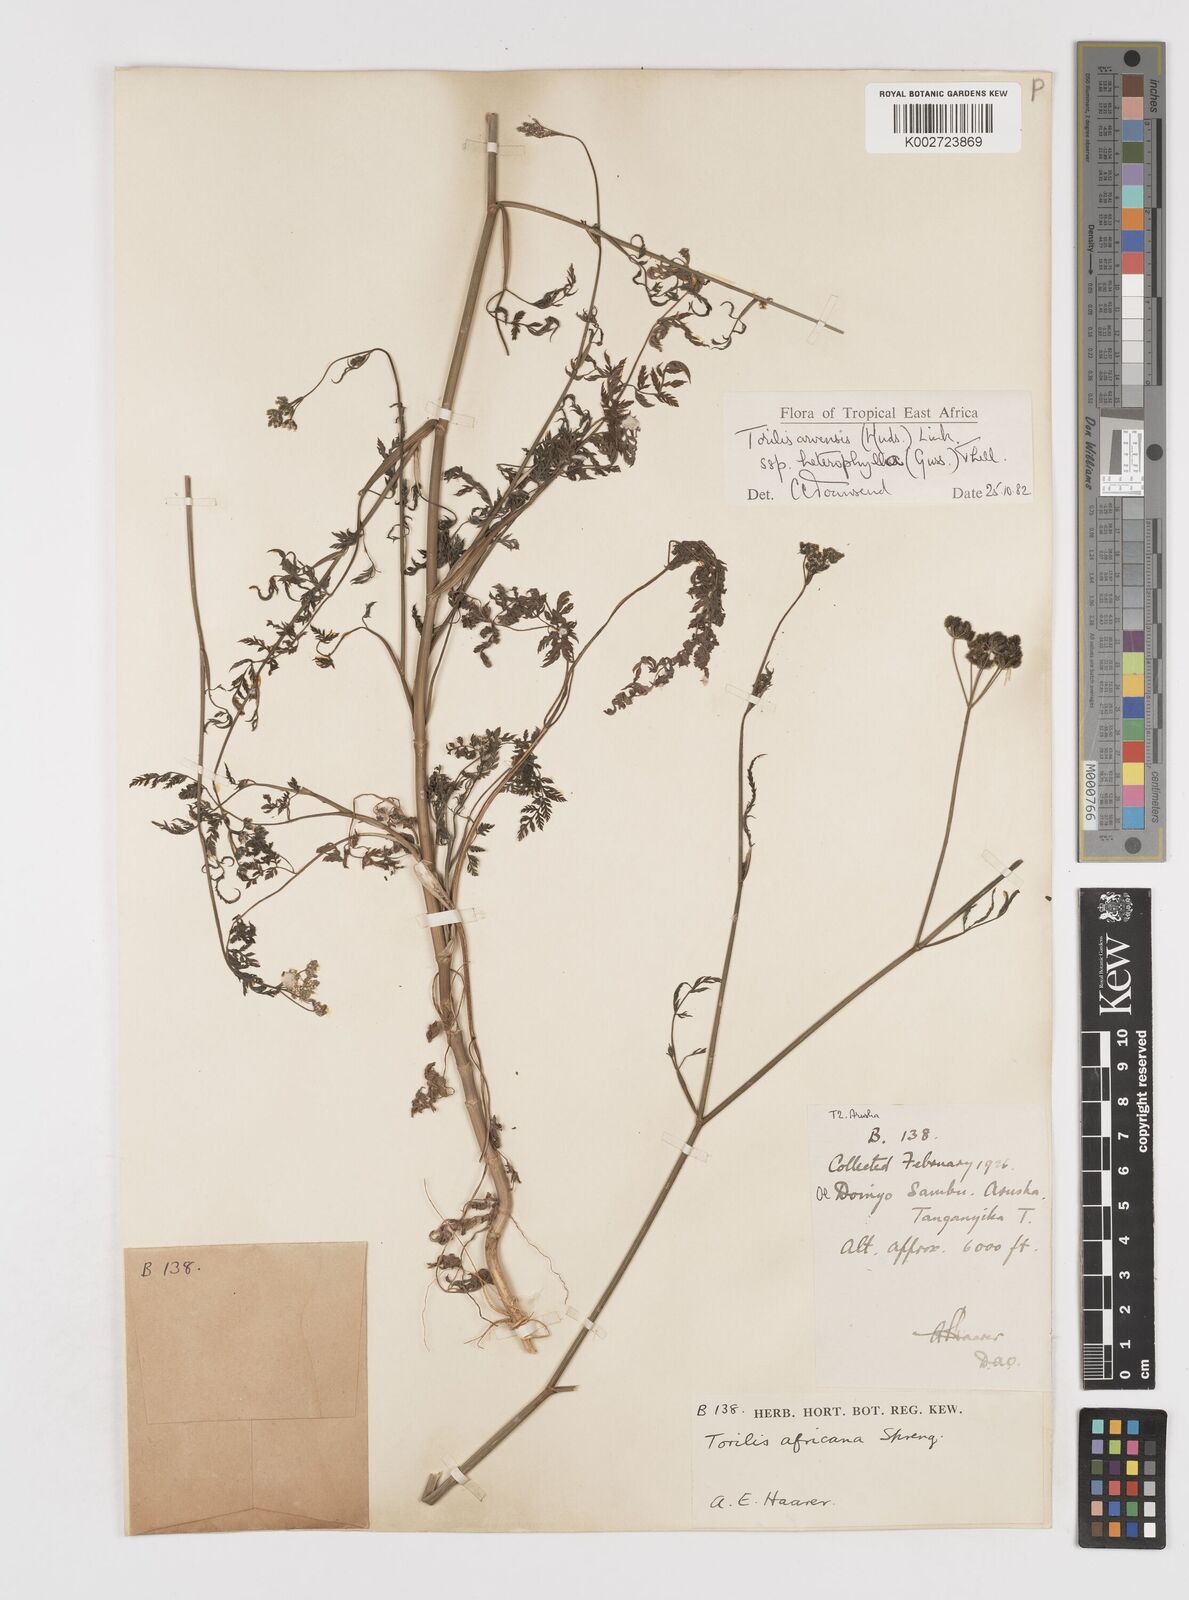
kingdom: Plantae
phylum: Tracheophyta
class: Magnoliopsida
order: Apiales
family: Apiaceae
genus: Torilis
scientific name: Torilis arvensis
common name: Spreading hedge-parsley
